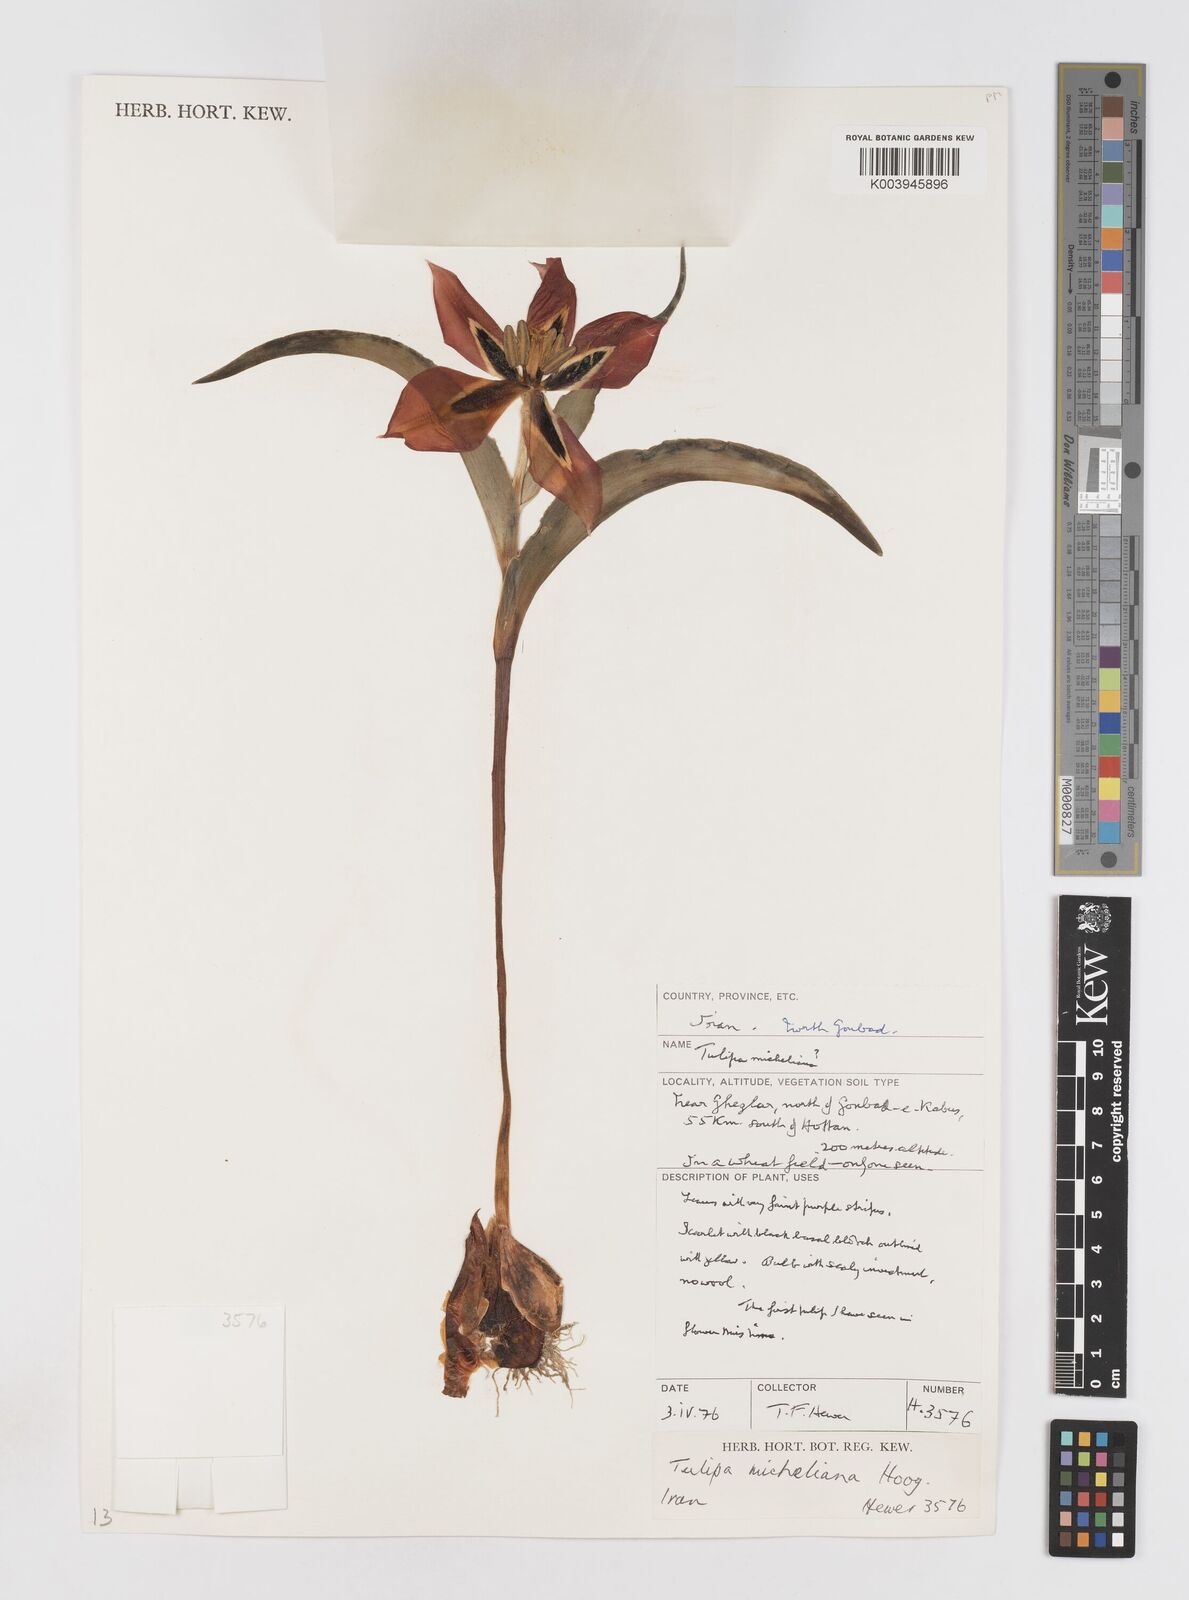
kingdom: Plantae
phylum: Tracheophyta
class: Liliopsida
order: Liliales
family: Liliaceae
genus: Tulipa
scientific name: Tulipa undulatifolia
